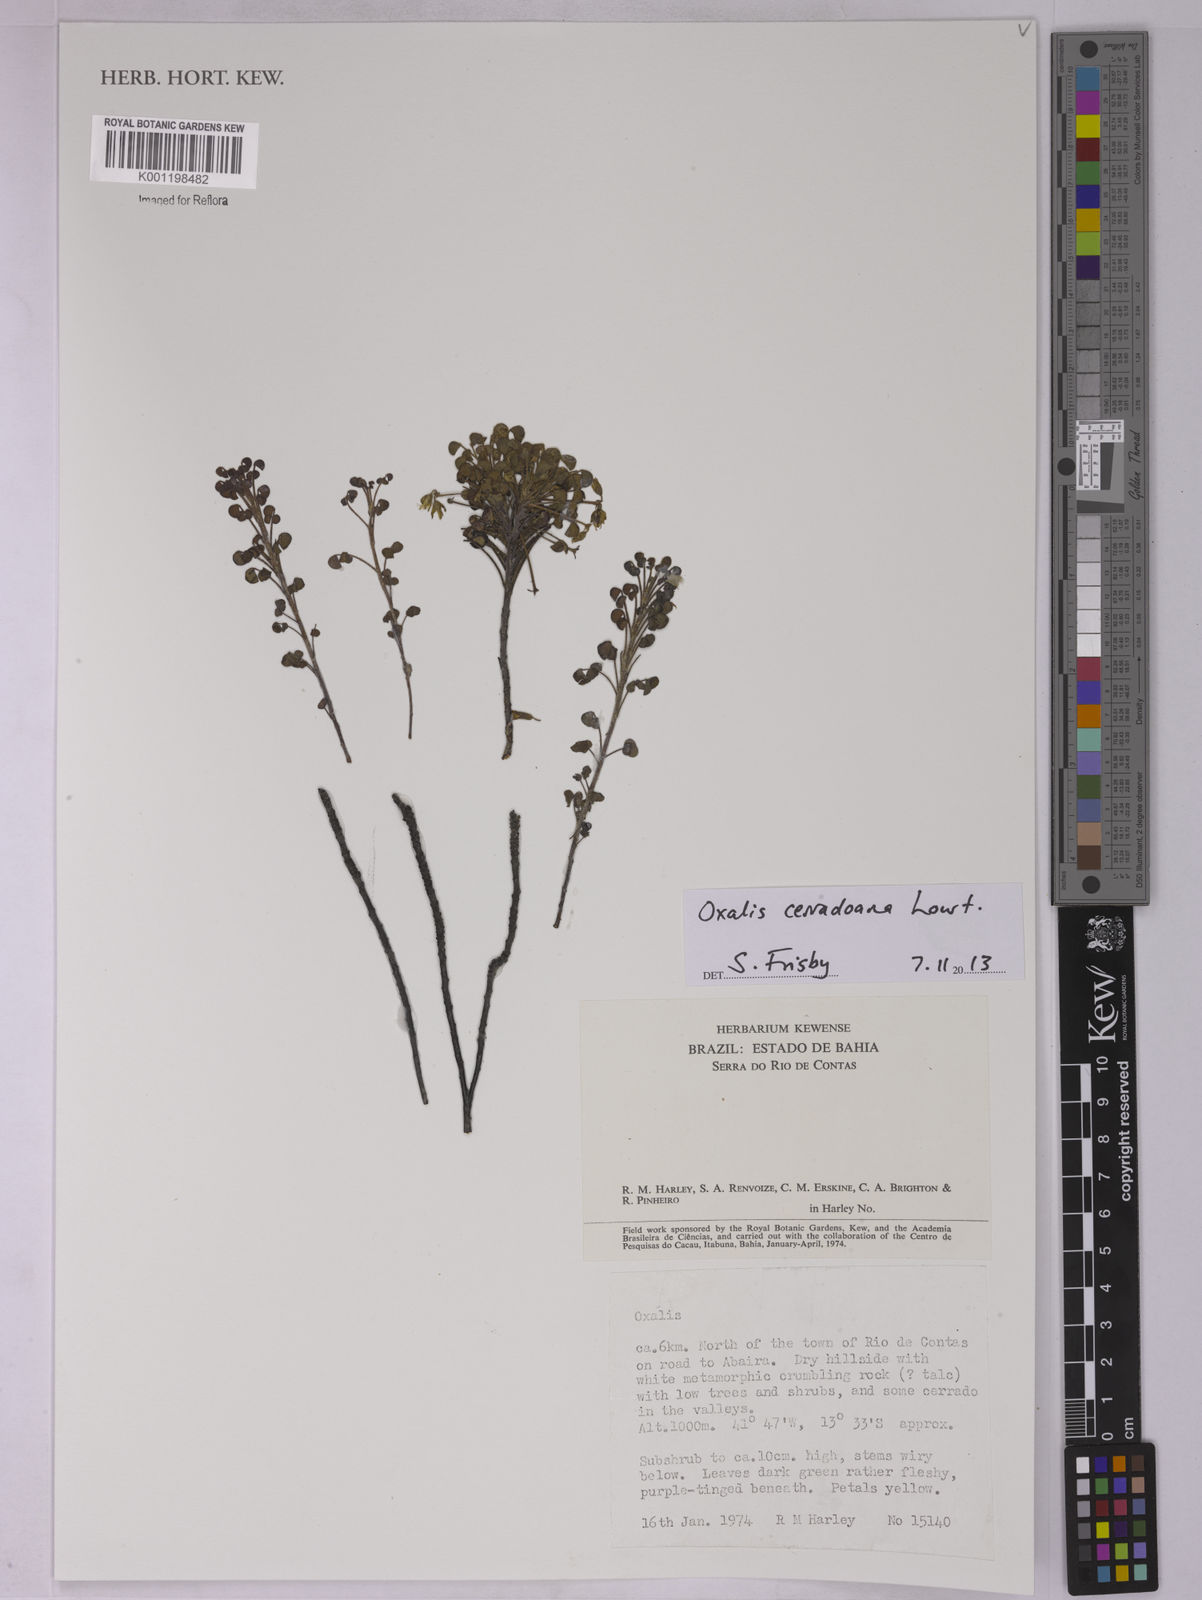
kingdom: Plantae
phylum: Tracheophyta
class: Magnoliopsida
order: Oxalidales
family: Oxalidaceae
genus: Oxalis
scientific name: Oxalis cerradoana
